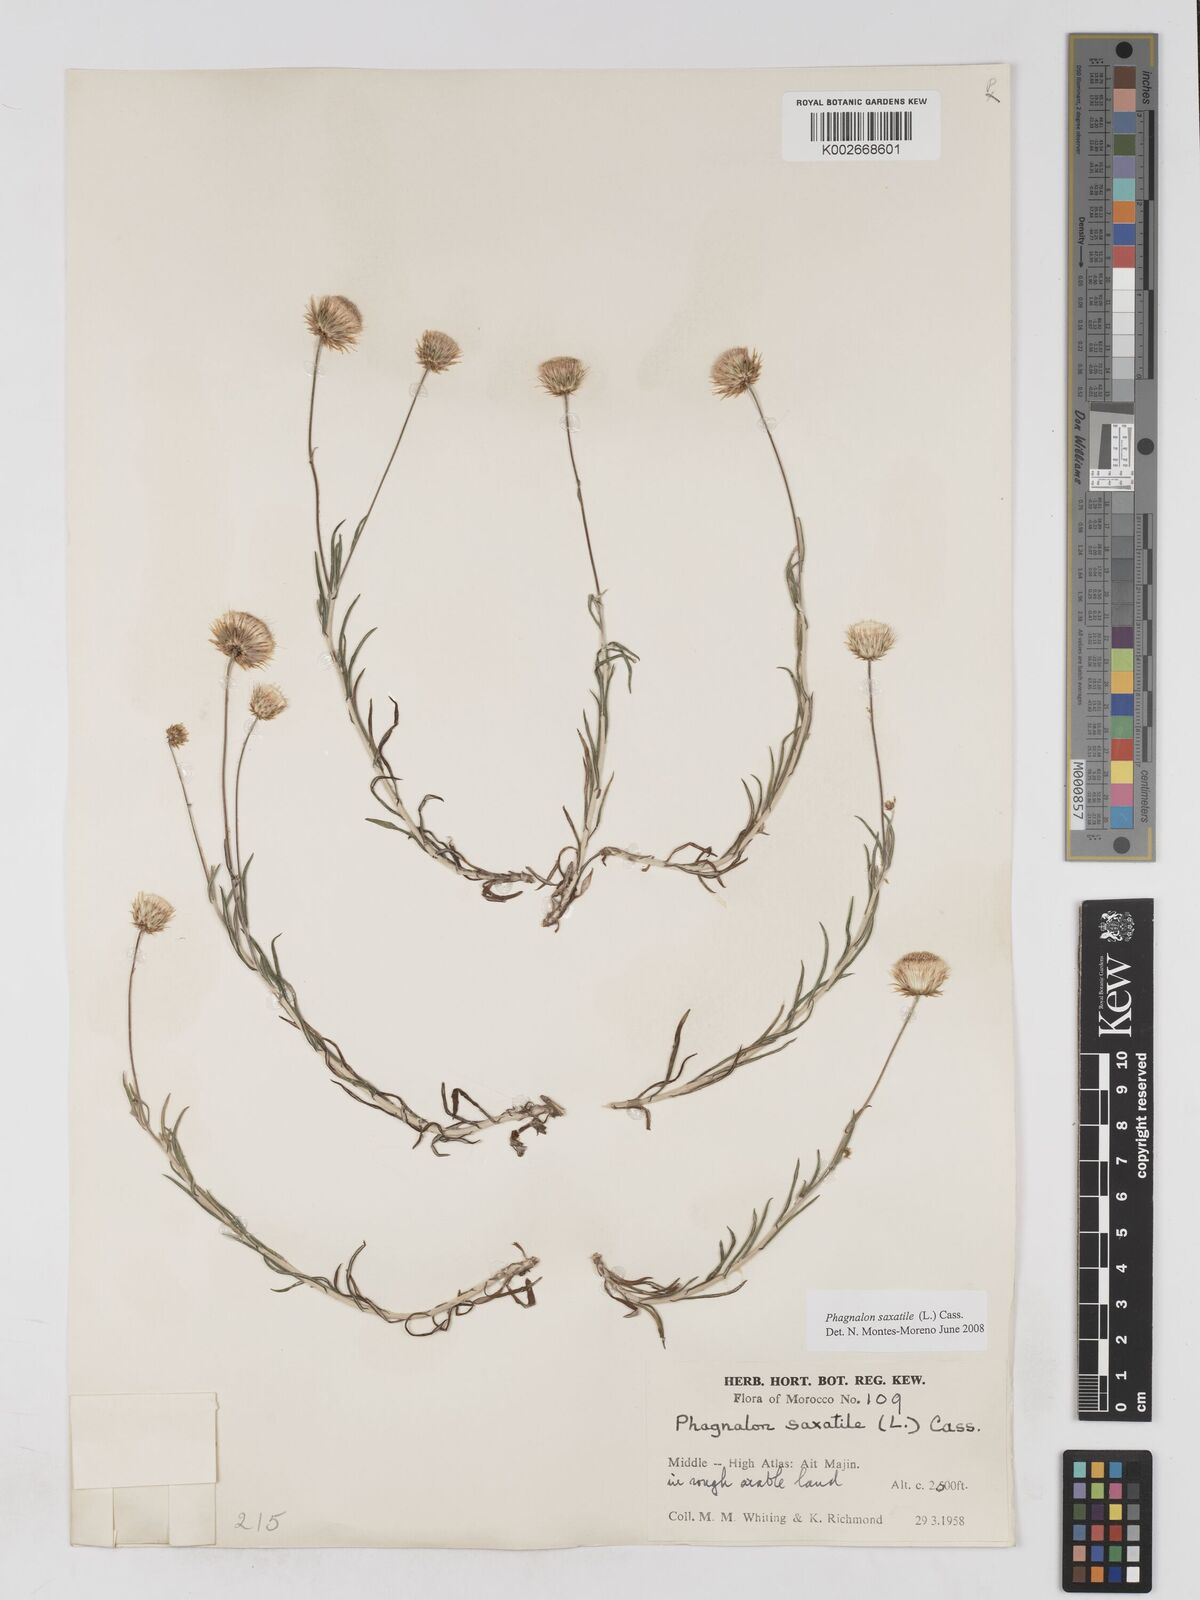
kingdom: Plantae
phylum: Tracheophyta
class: Magnoliopsida
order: Asterales
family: Asteraceae
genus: Phagnalon
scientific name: Phagnalon saxatile
